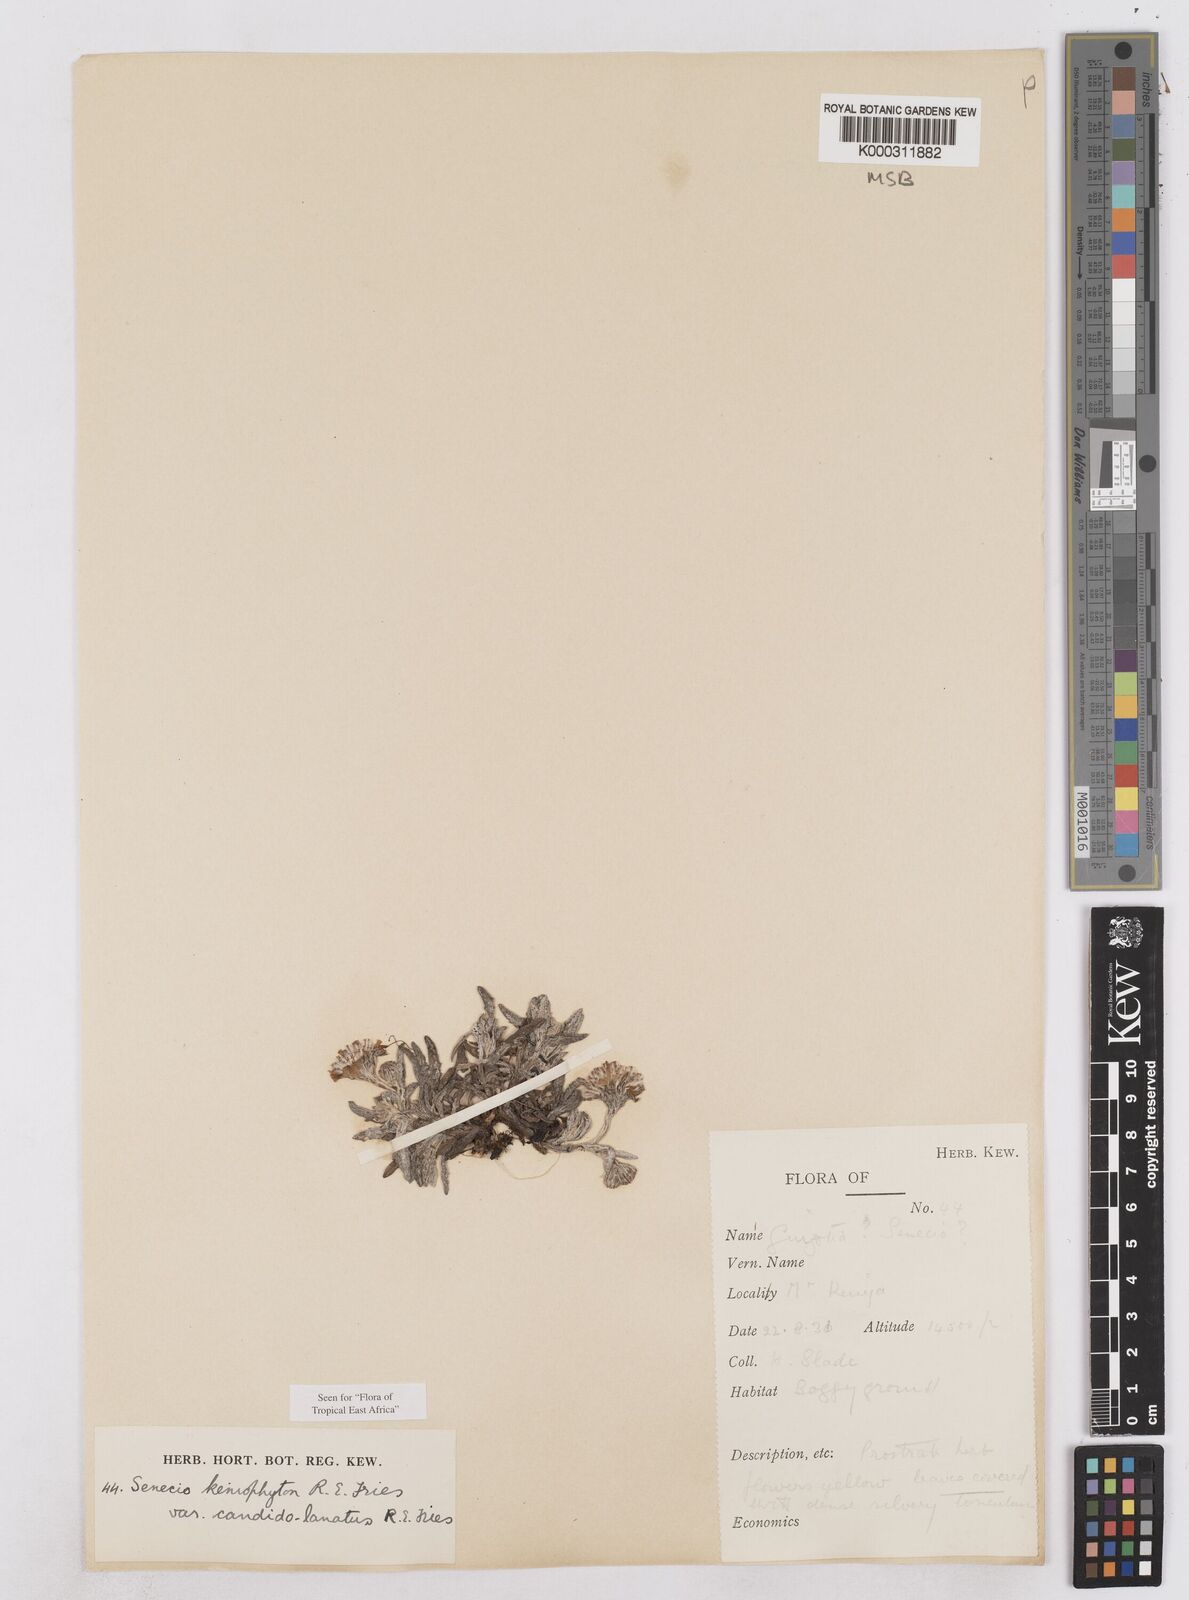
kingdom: Plantae
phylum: Tracheophyta
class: Magnoliopsida
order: Asterales
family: Asteraceae
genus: Senecio
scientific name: Senecio keniophytum
